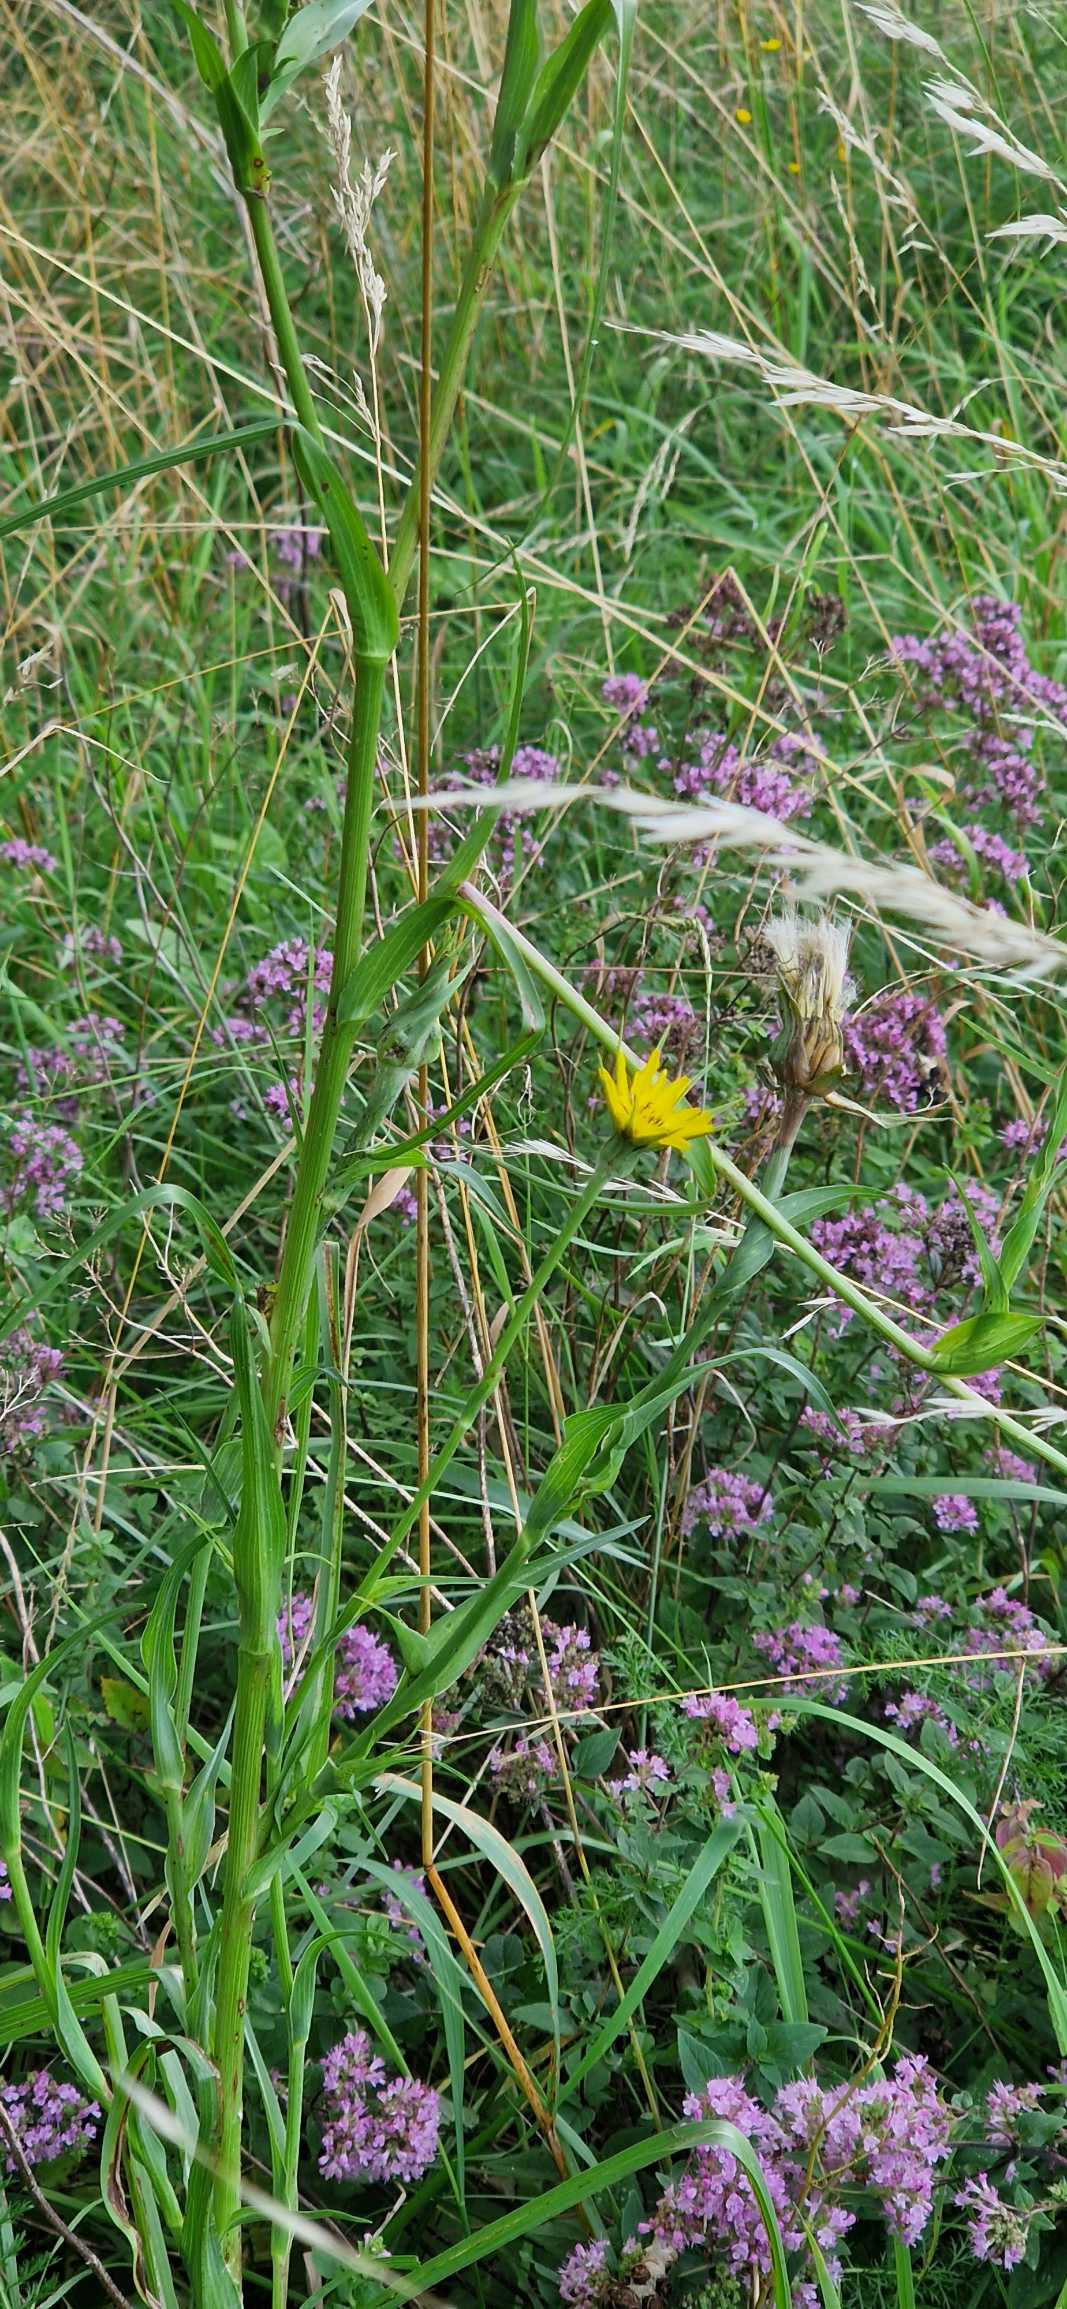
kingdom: Plantae
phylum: Tracheophyta
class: Magnoliopsida
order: Asterales
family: Asteraceae
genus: Tragopogon
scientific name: Tragopogon minor
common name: Småkronet gedeskæg
